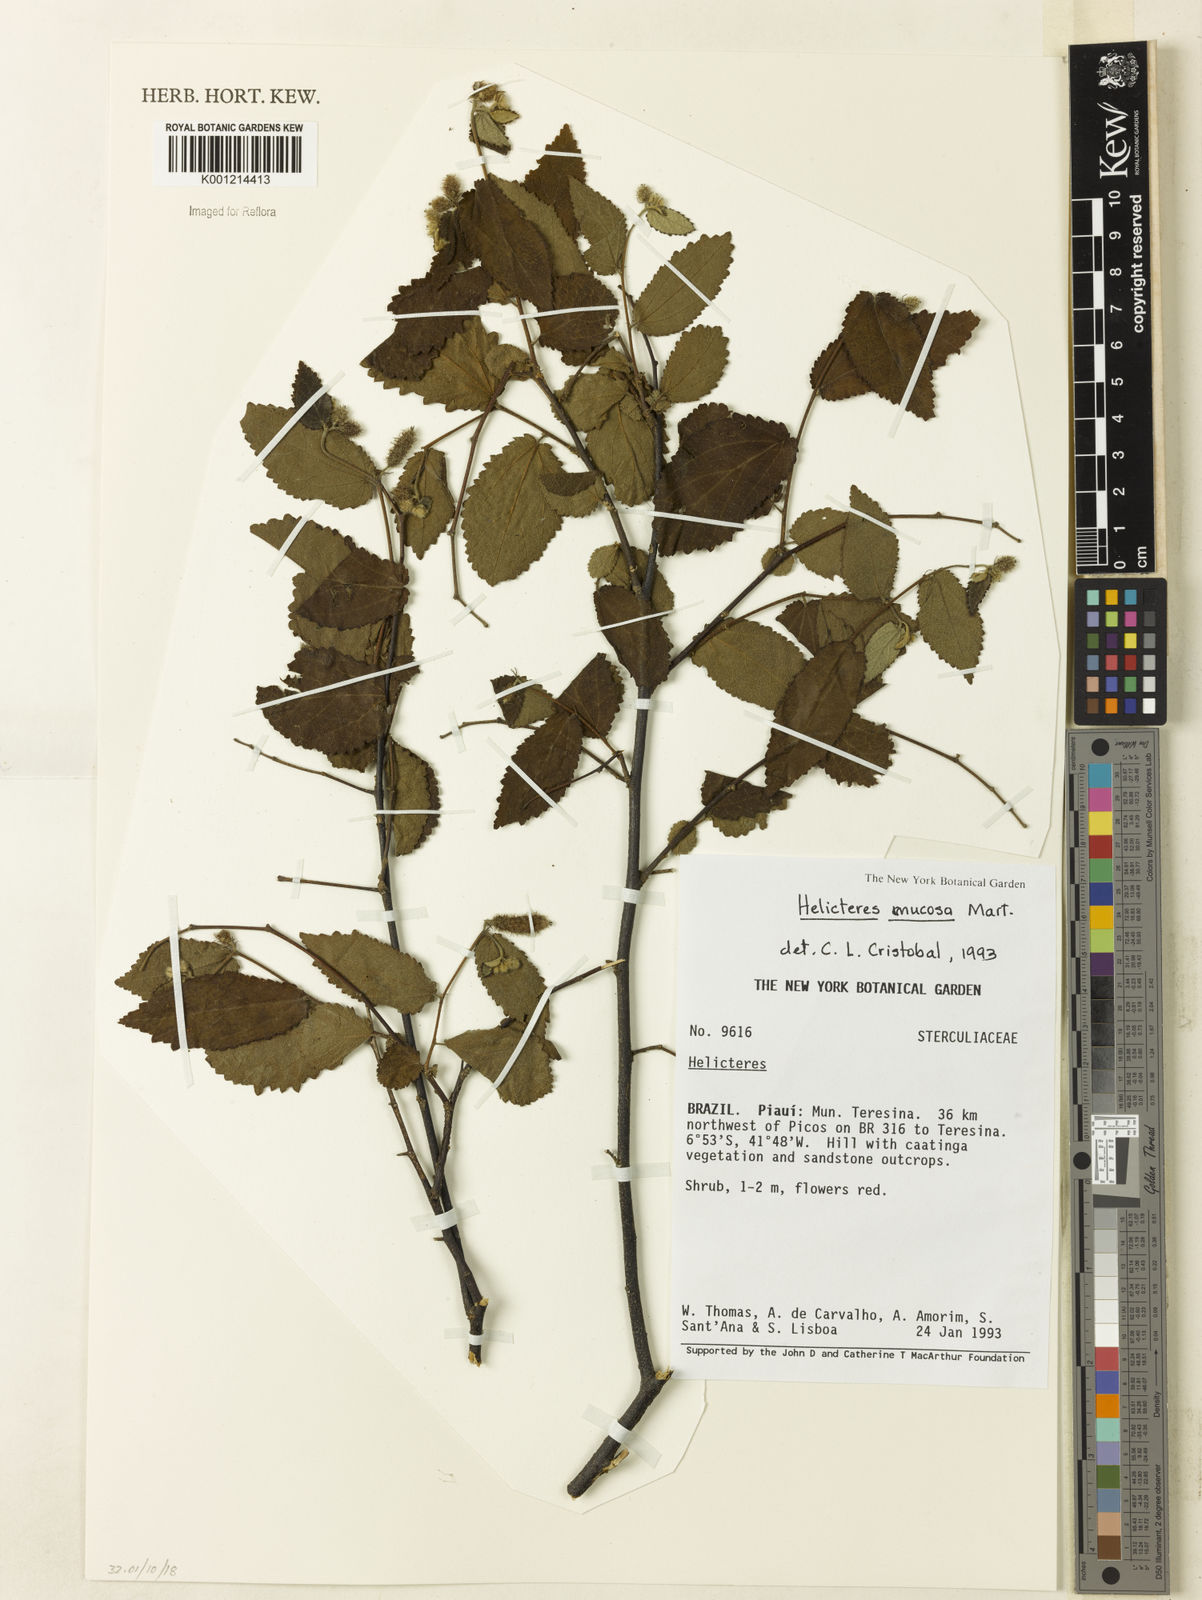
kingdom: Plantae
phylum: Tracheophyta
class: Magnoliopsida
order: Malvales
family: Malvaceae
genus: Helicteres
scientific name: Helicteres muscosa
